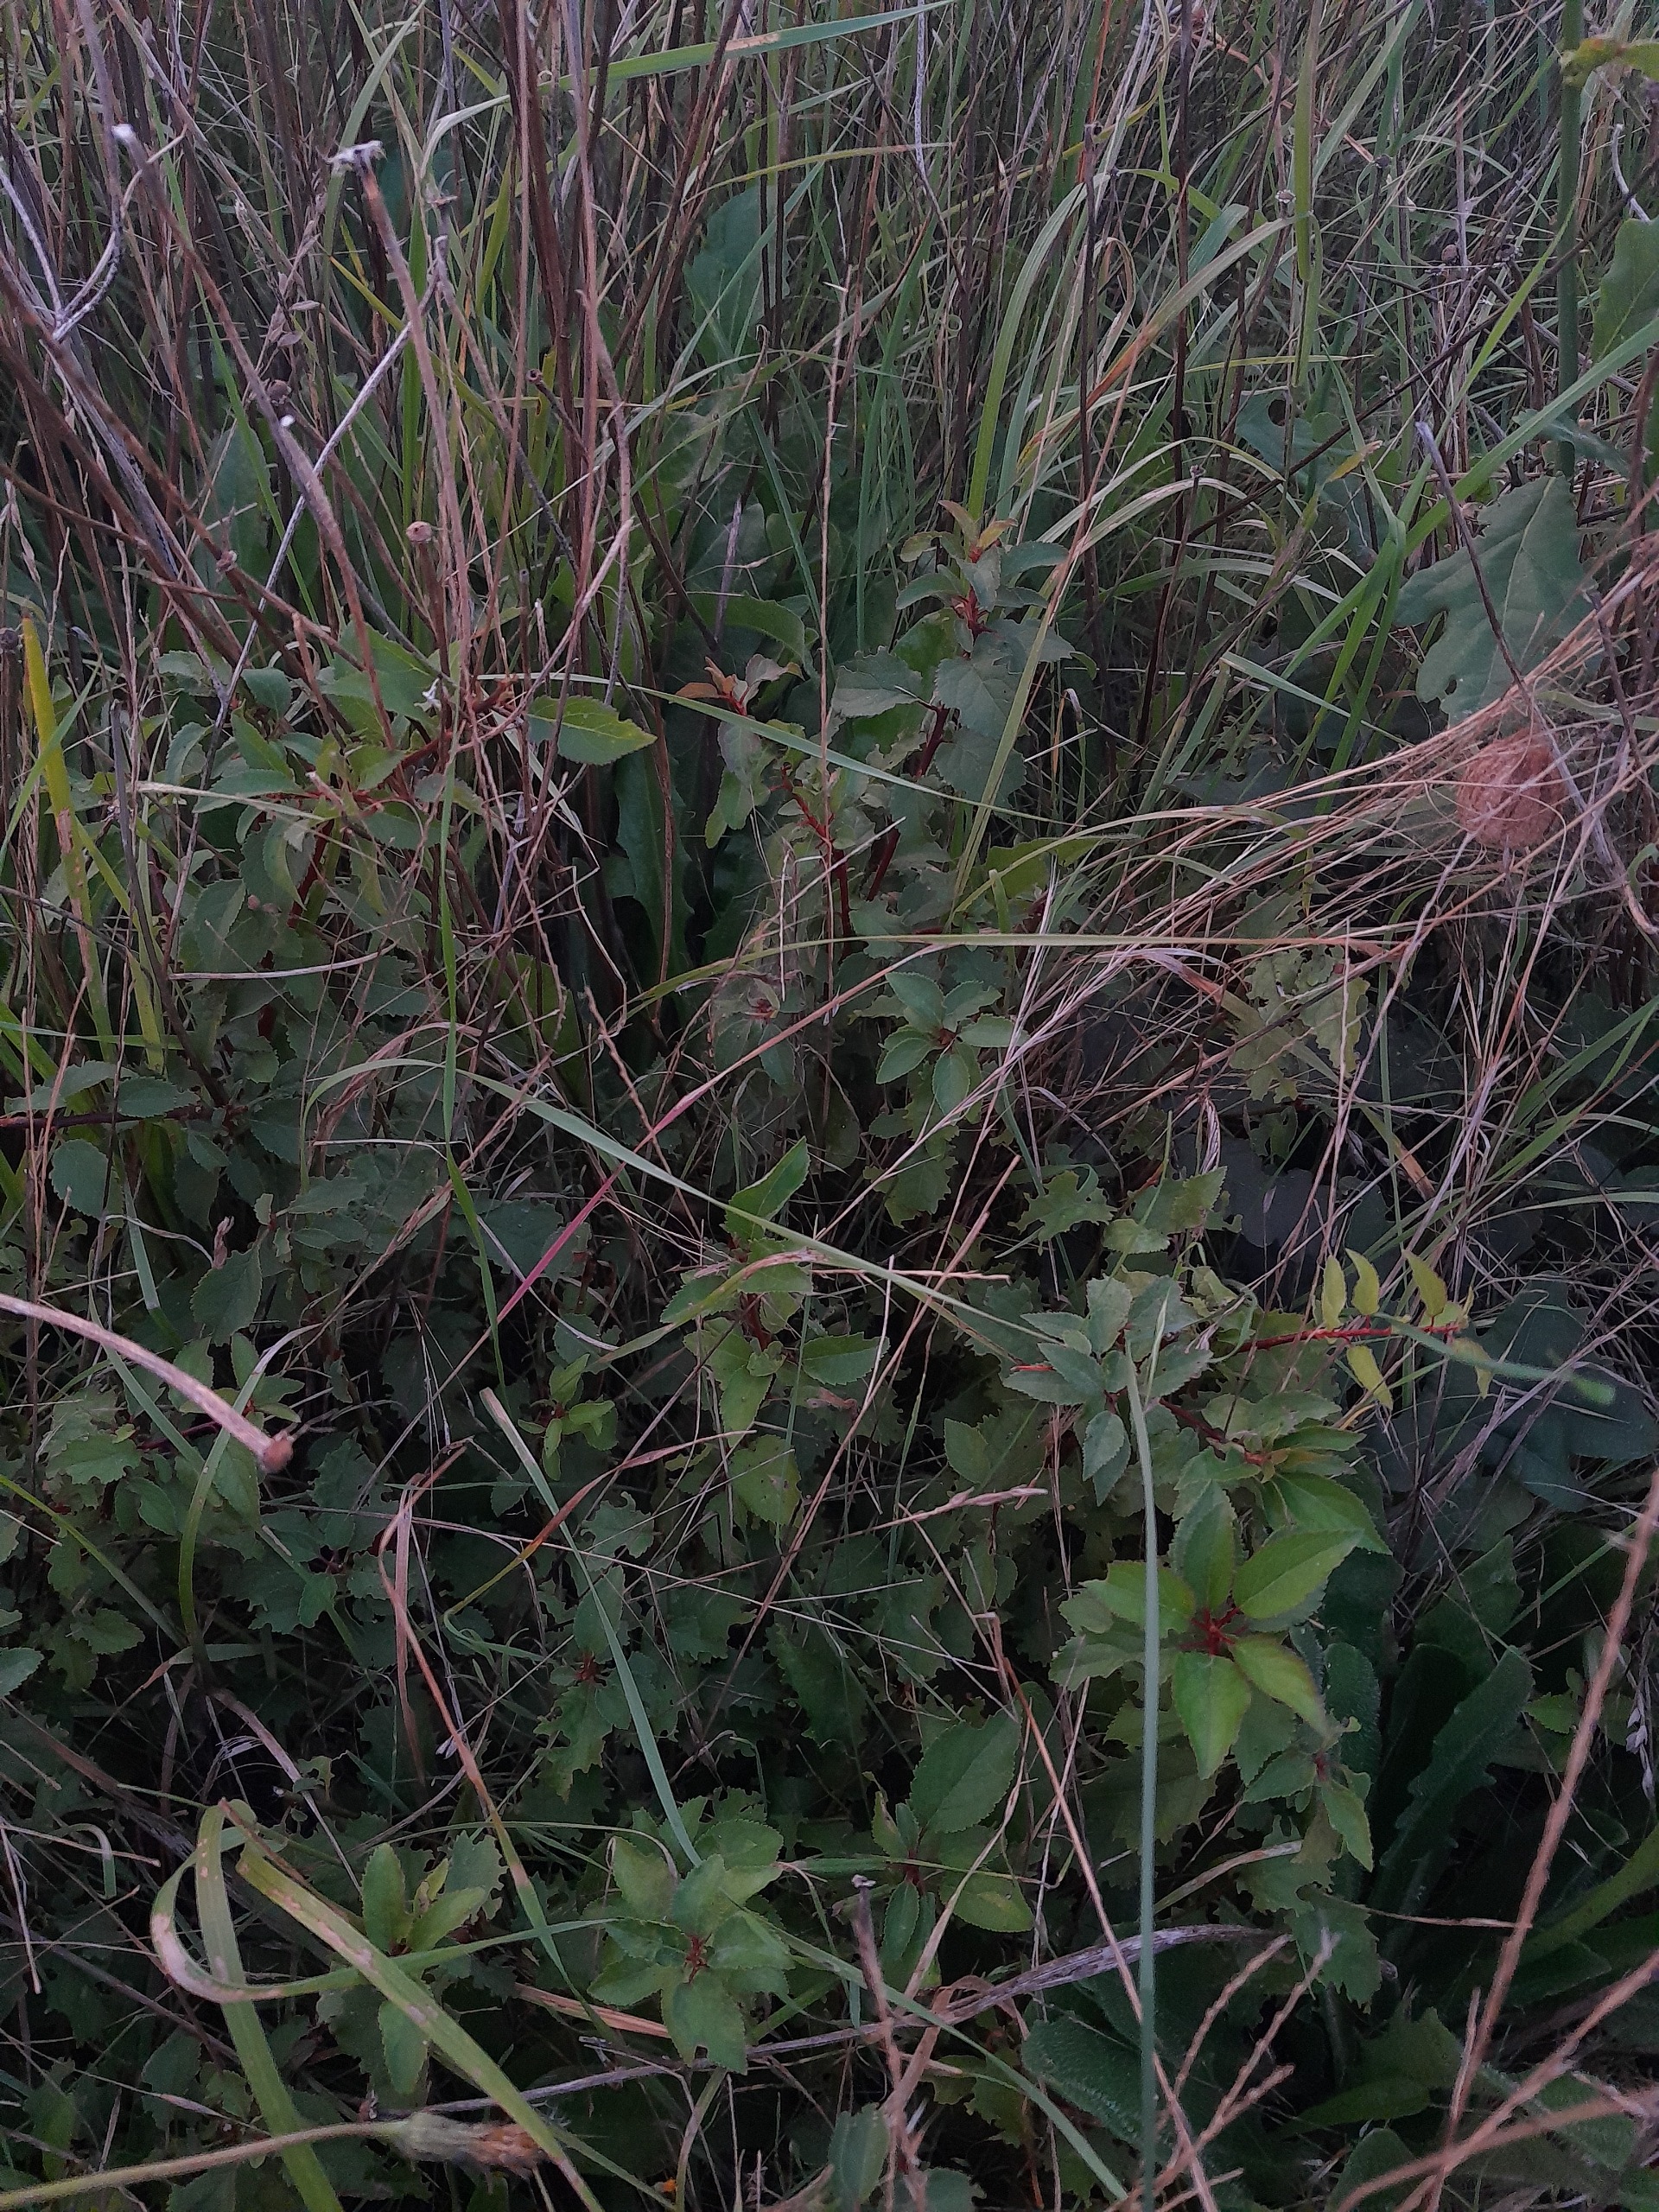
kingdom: Plantae
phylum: Tracheophyta
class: Magnoliopsida
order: Rosales
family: Rosaceae
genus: Prunus
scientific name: Prunus cerasifera
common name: Mirabel
